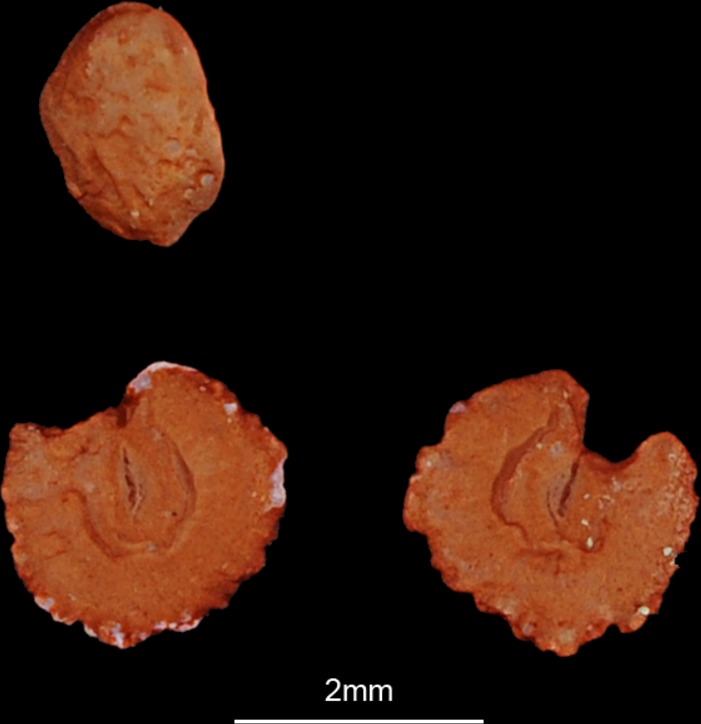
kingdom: Animalia
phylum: Chordata
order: Cypriniformes
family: Cyprinidae
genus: Abramis
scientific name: Abramis brama
